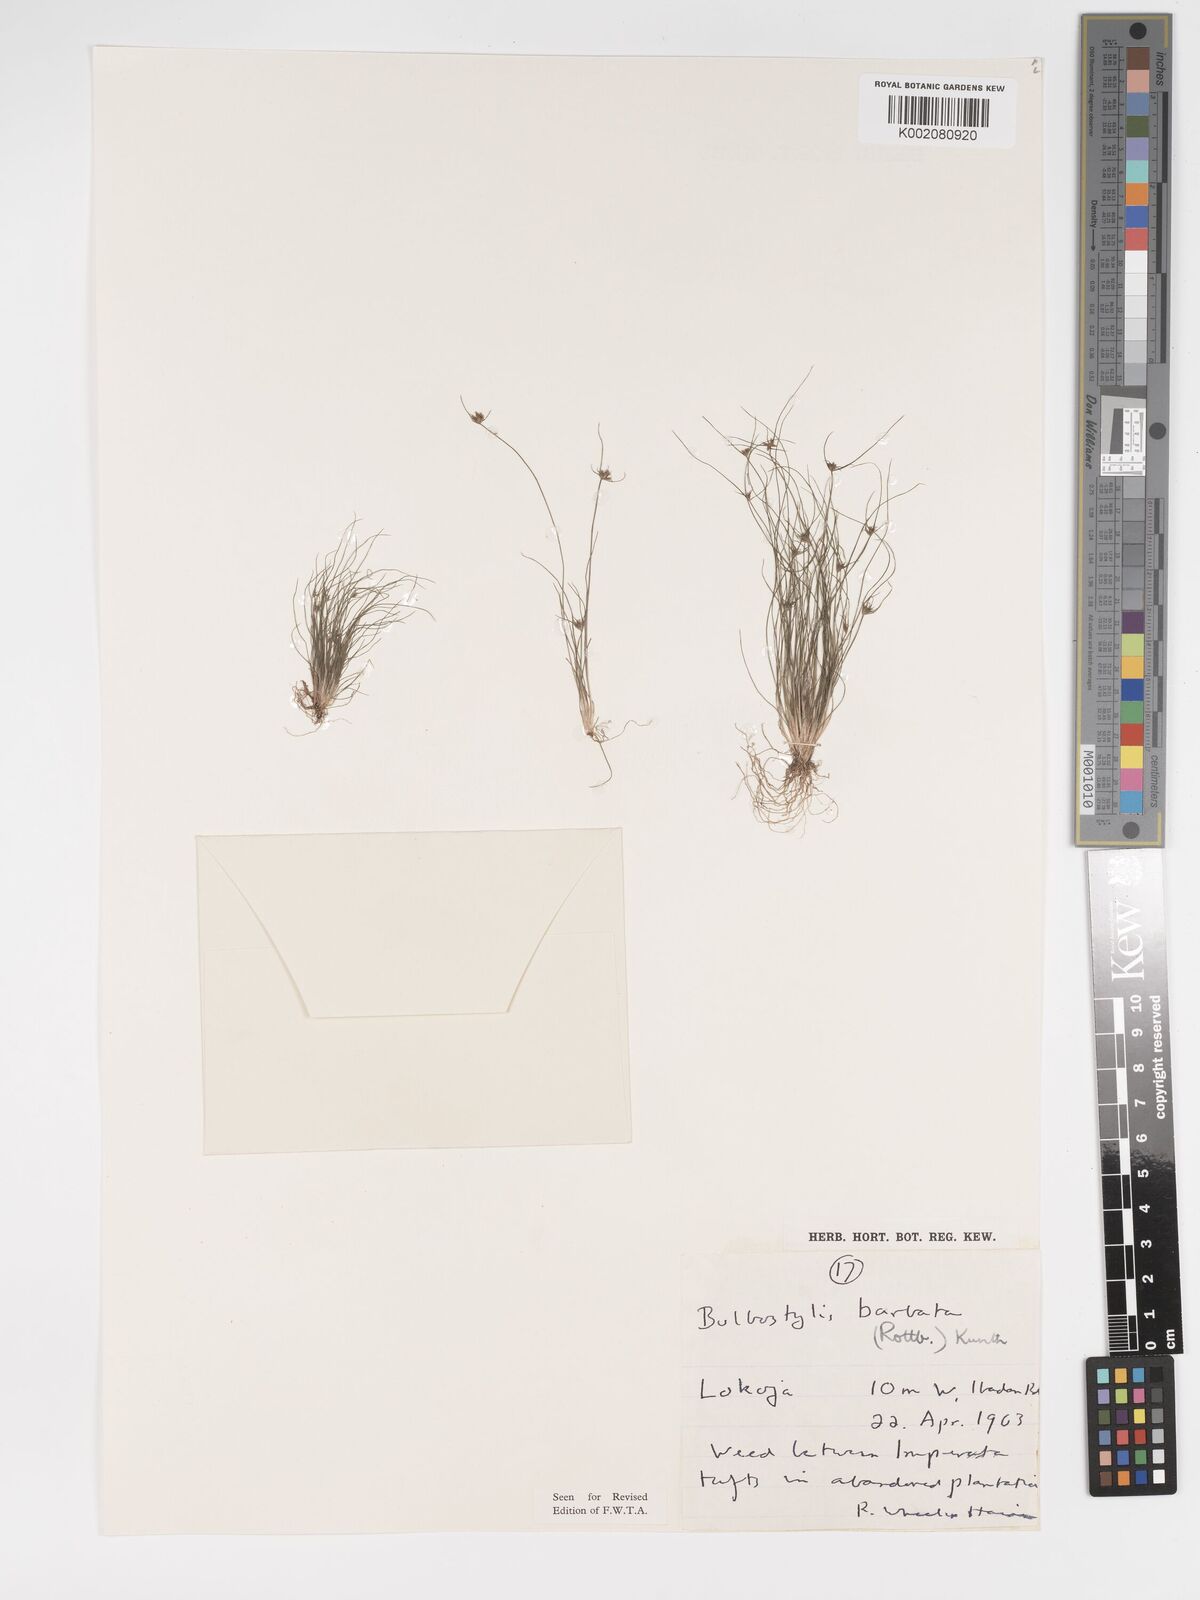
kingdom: Plantae
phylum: Tracheophyta
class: Liliopsida
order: Poales
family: Cyperaceae
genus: Bulbostylis
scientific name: Bulbostylis barbata
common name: Watergrass
